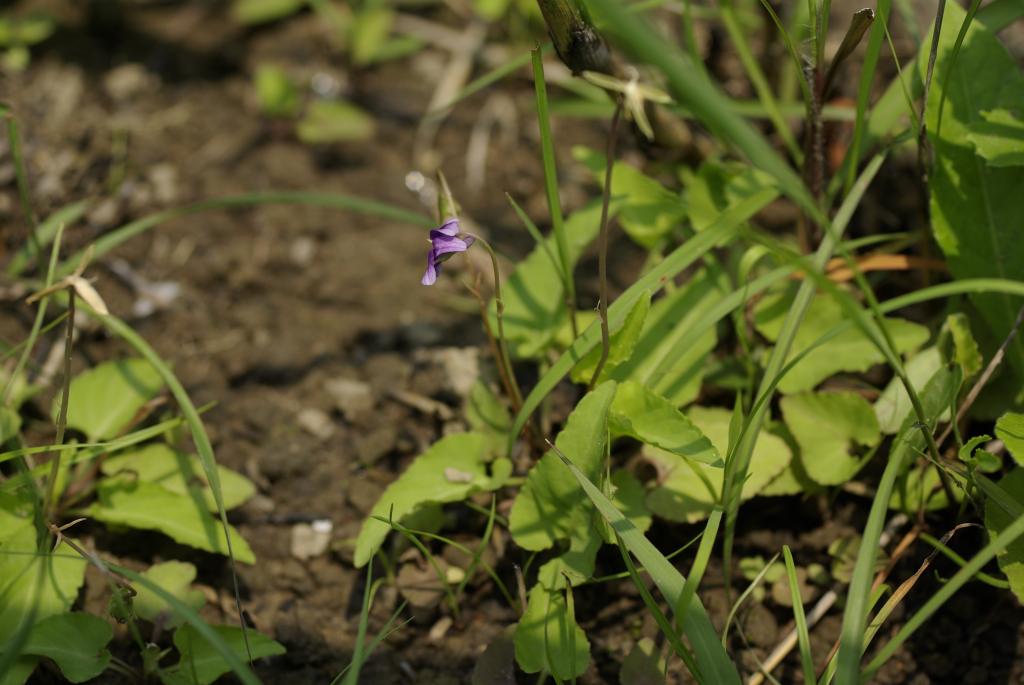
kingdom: Plantae
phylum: Tracheophyta
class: Magnoliopsida
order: Malpighiales
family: Violaceae
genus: Viola
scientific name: Viola inconspicua
